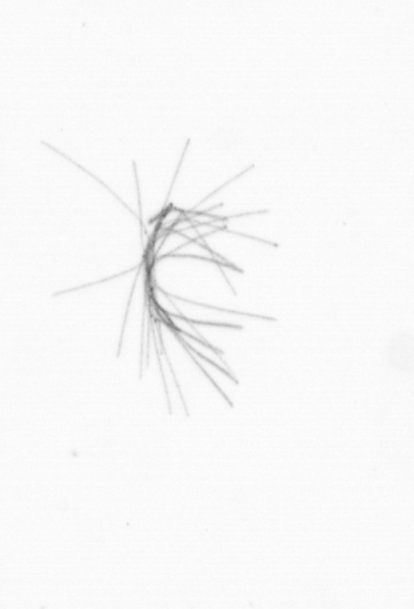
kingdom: Bacteria
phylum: Cyanobacteria
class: Cyanobacteriia
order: Cyanobacteriales
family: Microcoleaceae
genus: Trichodesmium
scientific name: Trichodesmium
